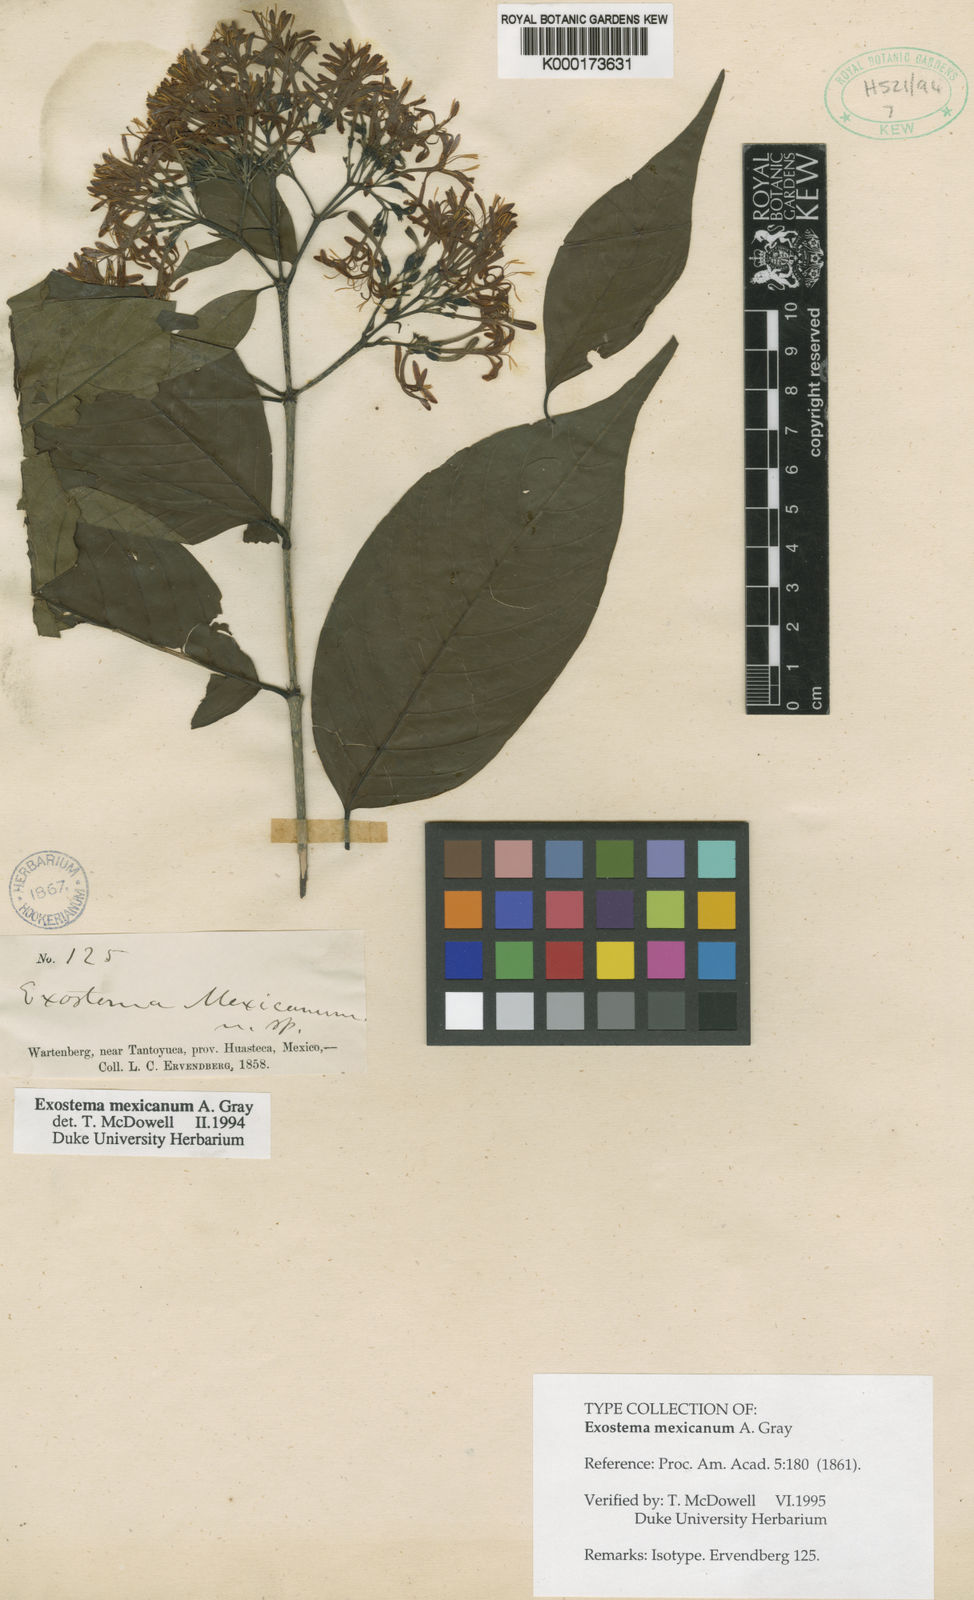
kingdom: Plantae
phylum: Tracheophyta
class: Magnoliopsida
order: Gentianales
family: Rubiaceae
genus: Solenandra
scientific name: Solenandra mexicana
